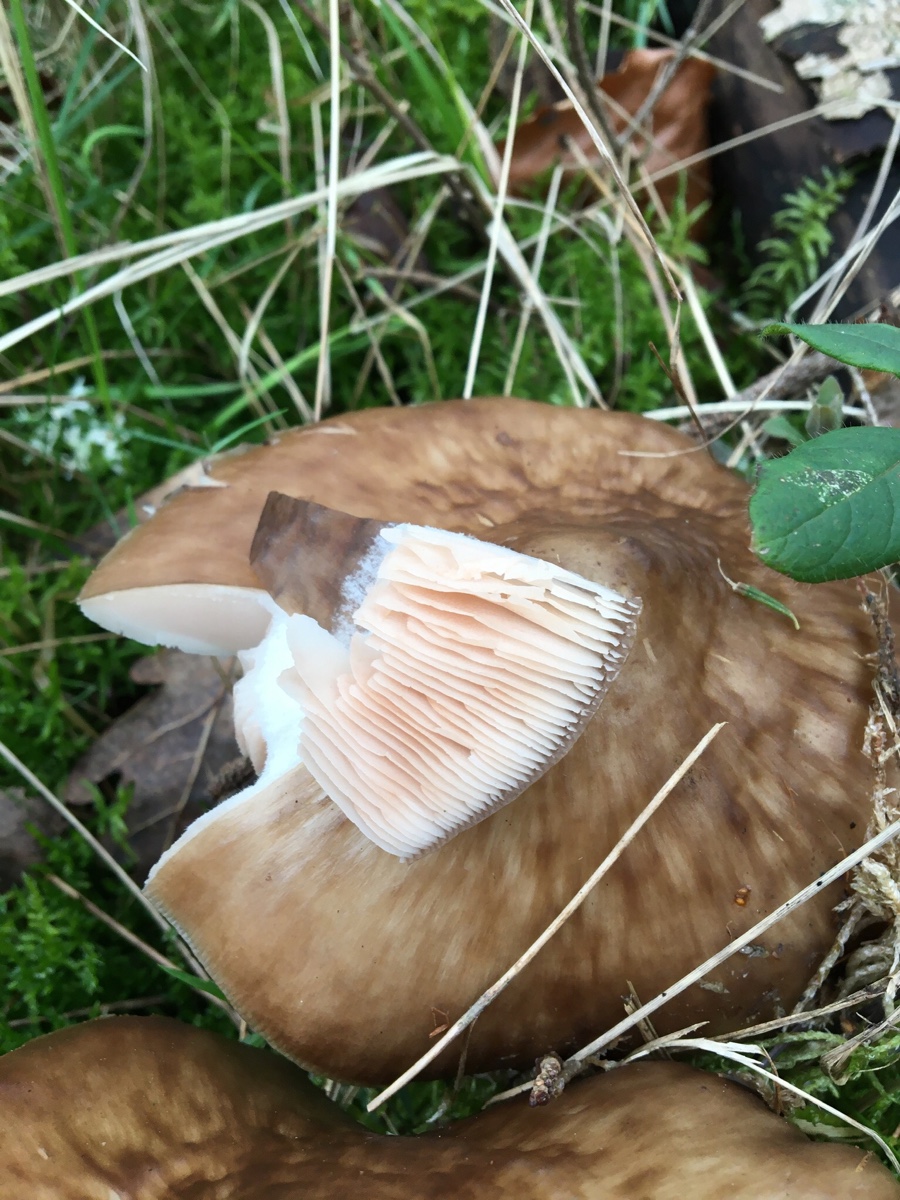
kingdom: Fungi
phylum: Basidiomycota
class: Agaricomycetes
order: Agaricales
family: Pluteaceae
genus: Pluteus
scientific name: Pluteus
